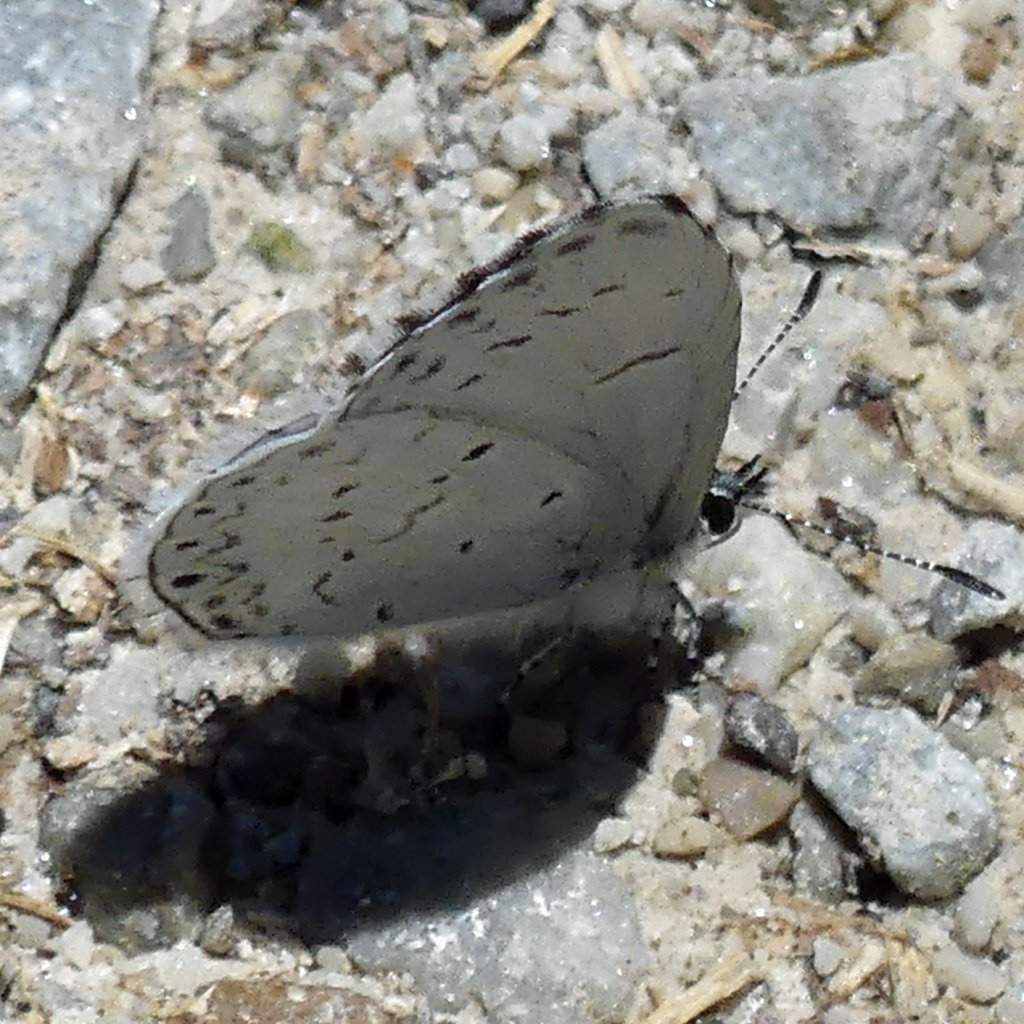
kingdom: Animalia
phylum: Arthropoda
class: Insecta
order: Lepidoptera
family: Lycaenidae
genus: Celastrina
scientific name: Celastrina
